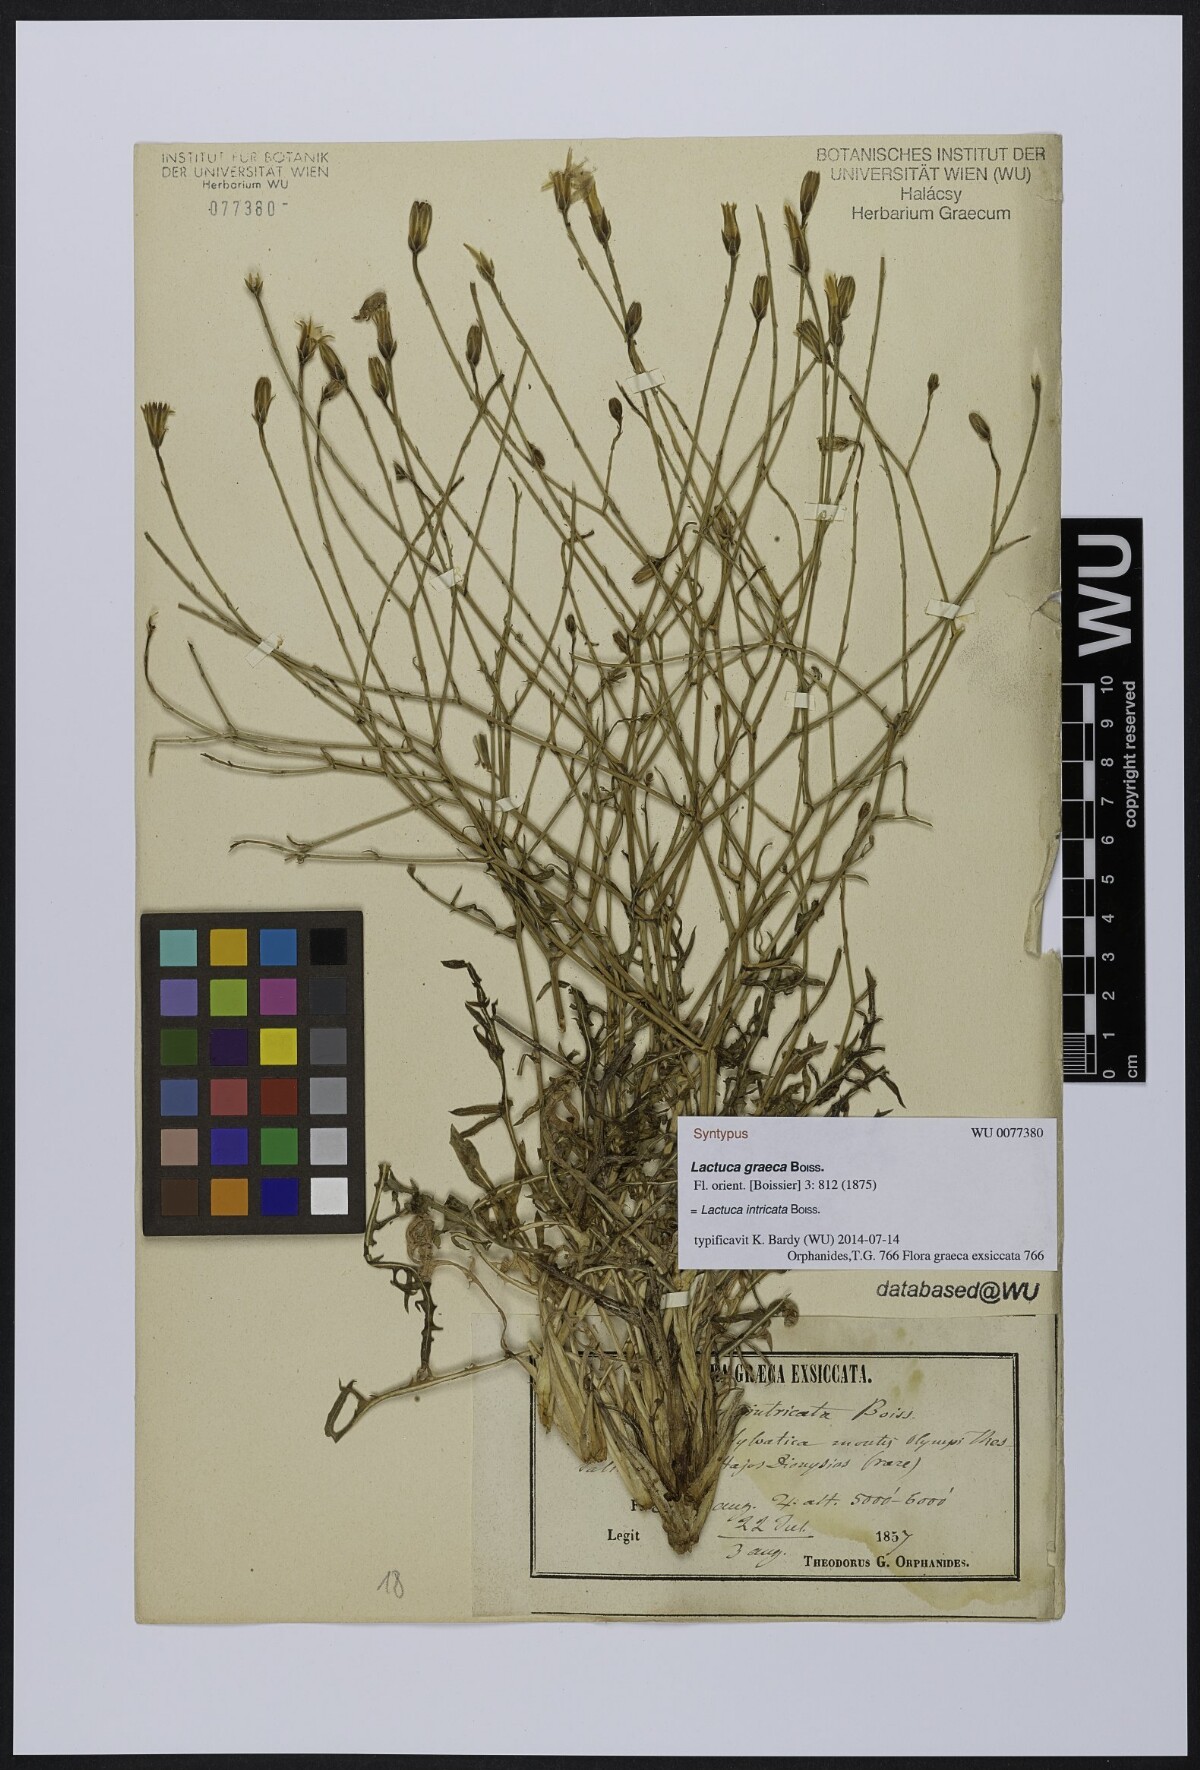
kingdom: Plantae
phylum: Tracheophyta
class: Magnoliopsida
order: Asterales
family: Asteraceae
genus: Lactuca
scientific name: Lactuca intricata
